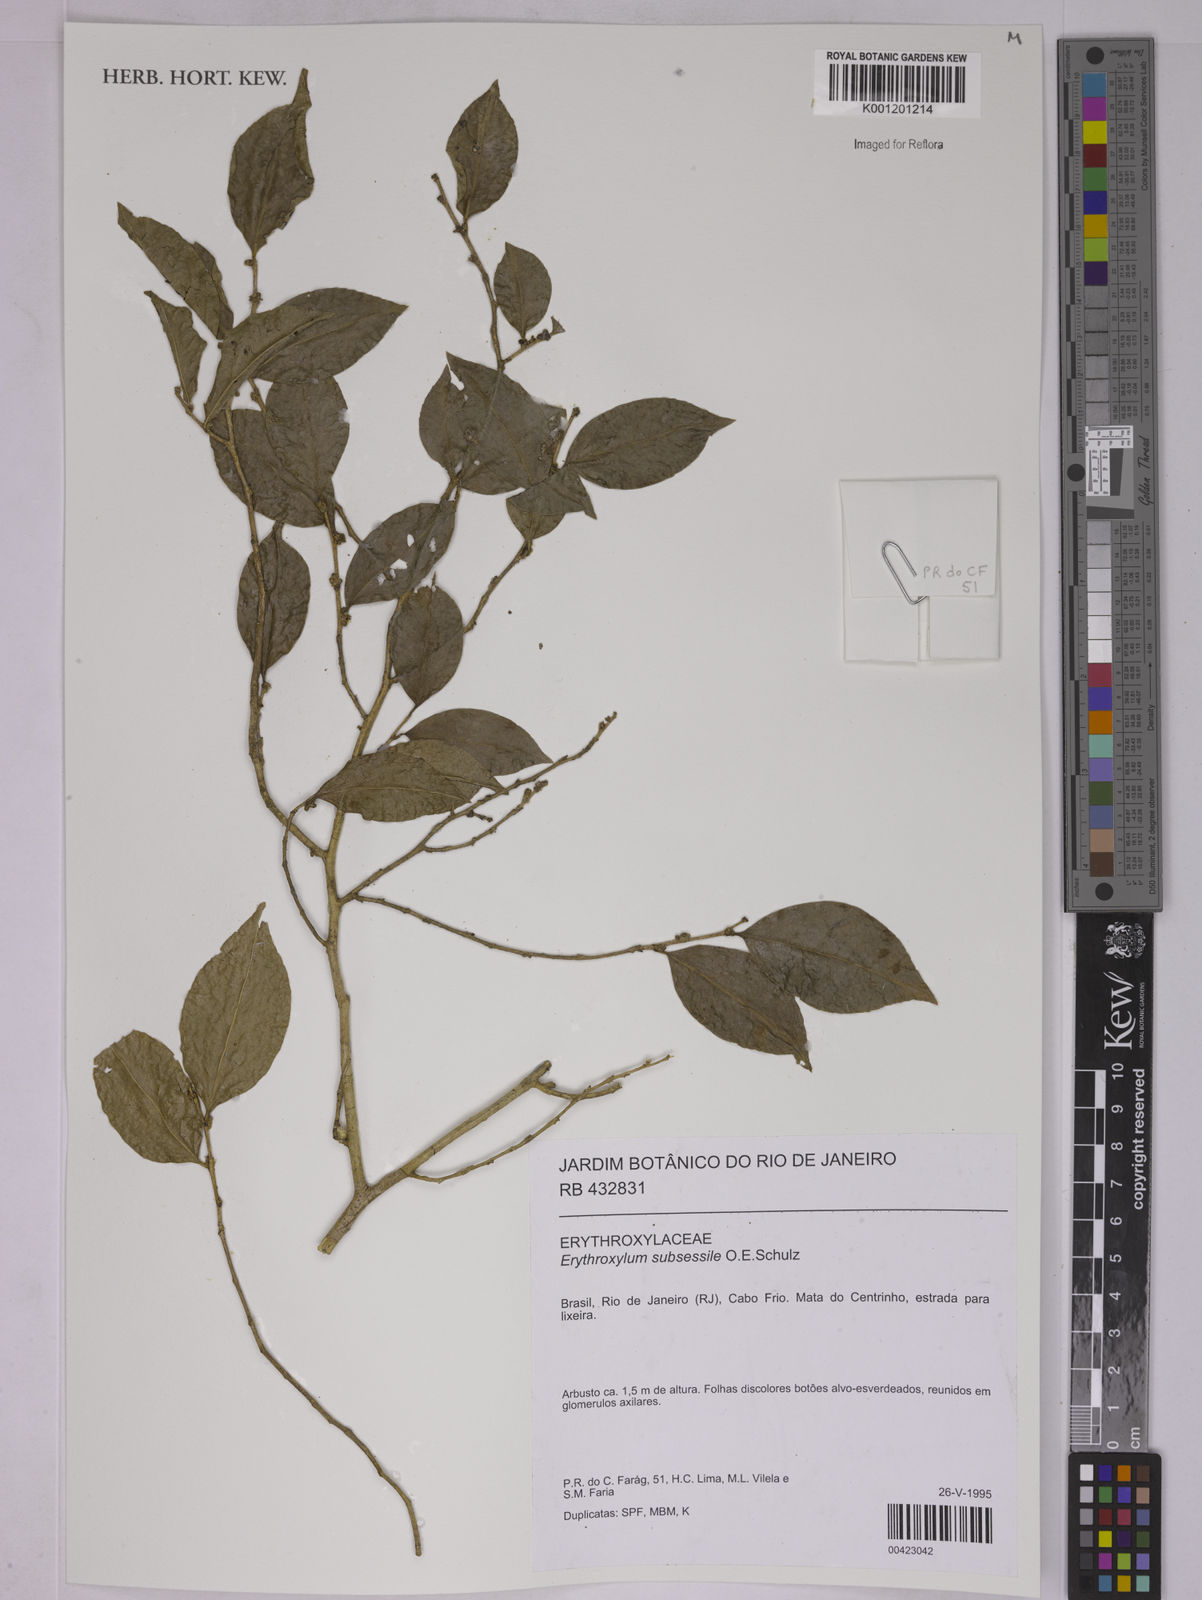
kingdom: Plantae
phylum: Tracheophyta
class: Magnoliopsida
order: Malpighiales
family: Erythroxylaceae
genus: Erythroxylum
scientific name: Erythroxylum macrocalyx
